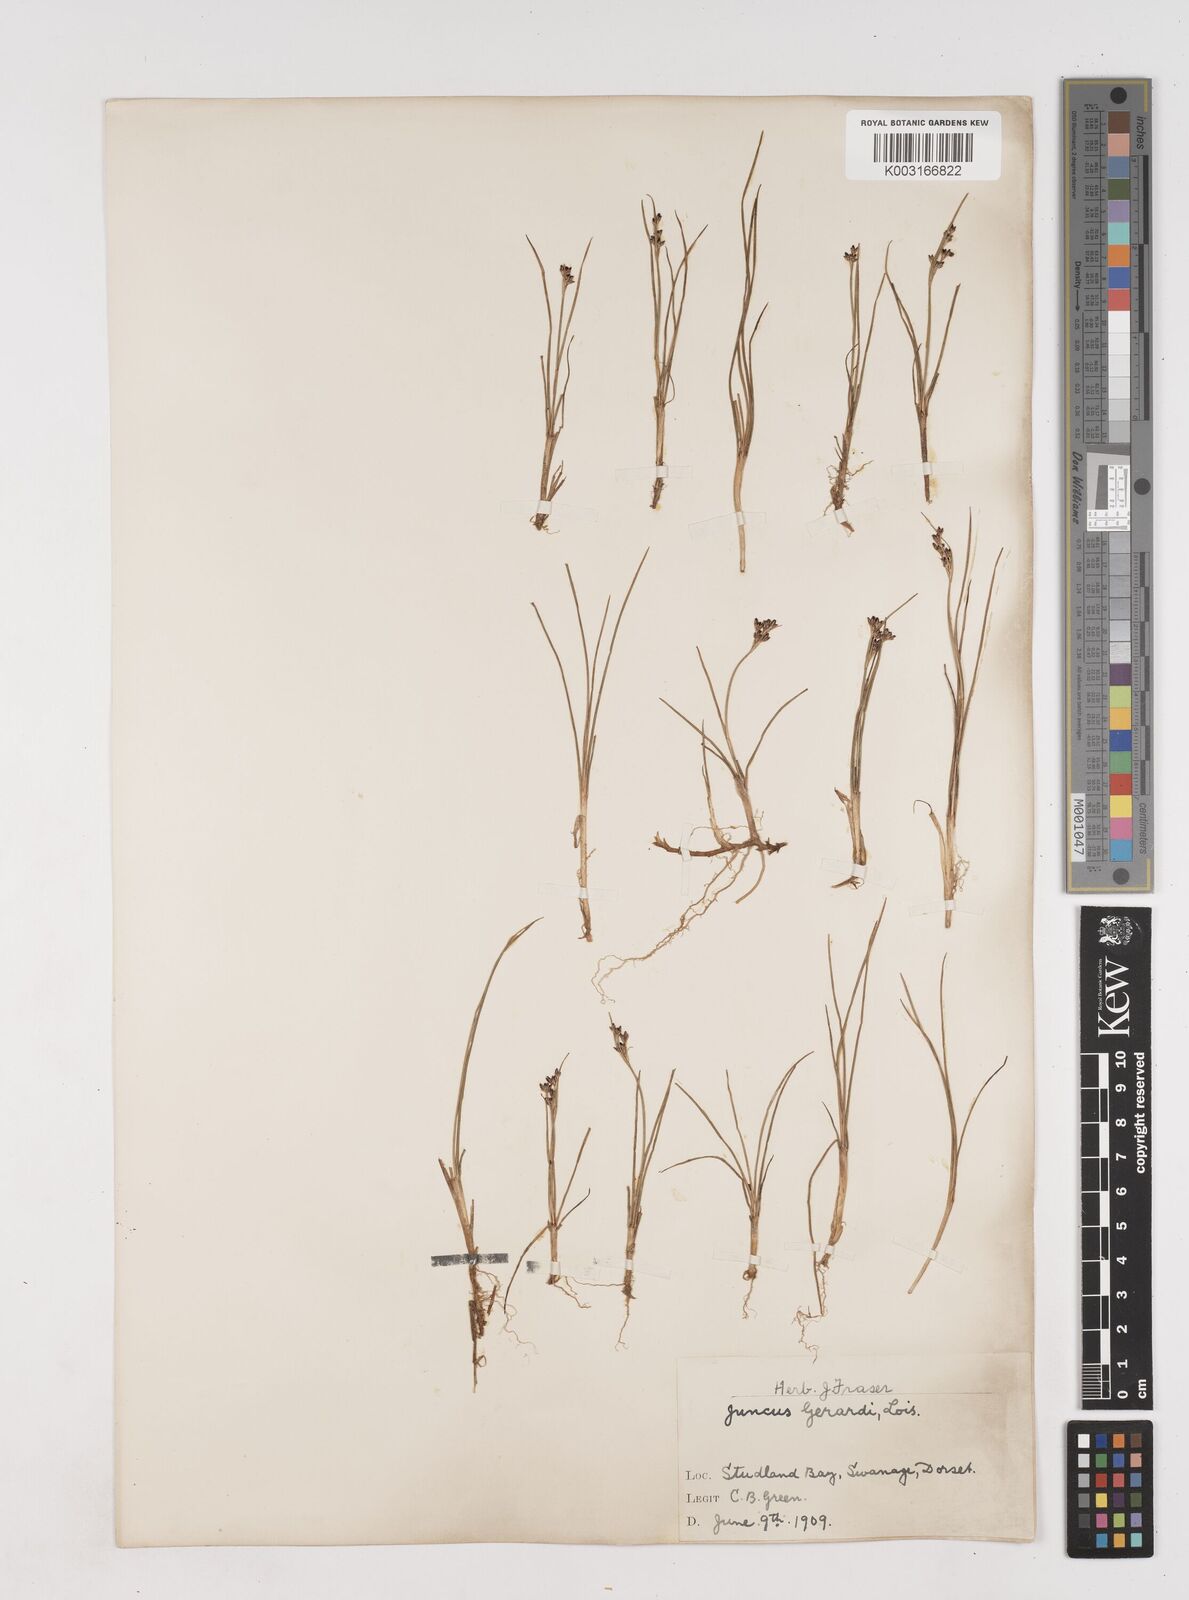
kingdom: Plantae
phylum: Tracheophyta
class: Liliopsida
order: Poales
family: Juncaceae
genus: Juncus
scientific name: Juncus gerardi
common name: Saltmarsh rush
